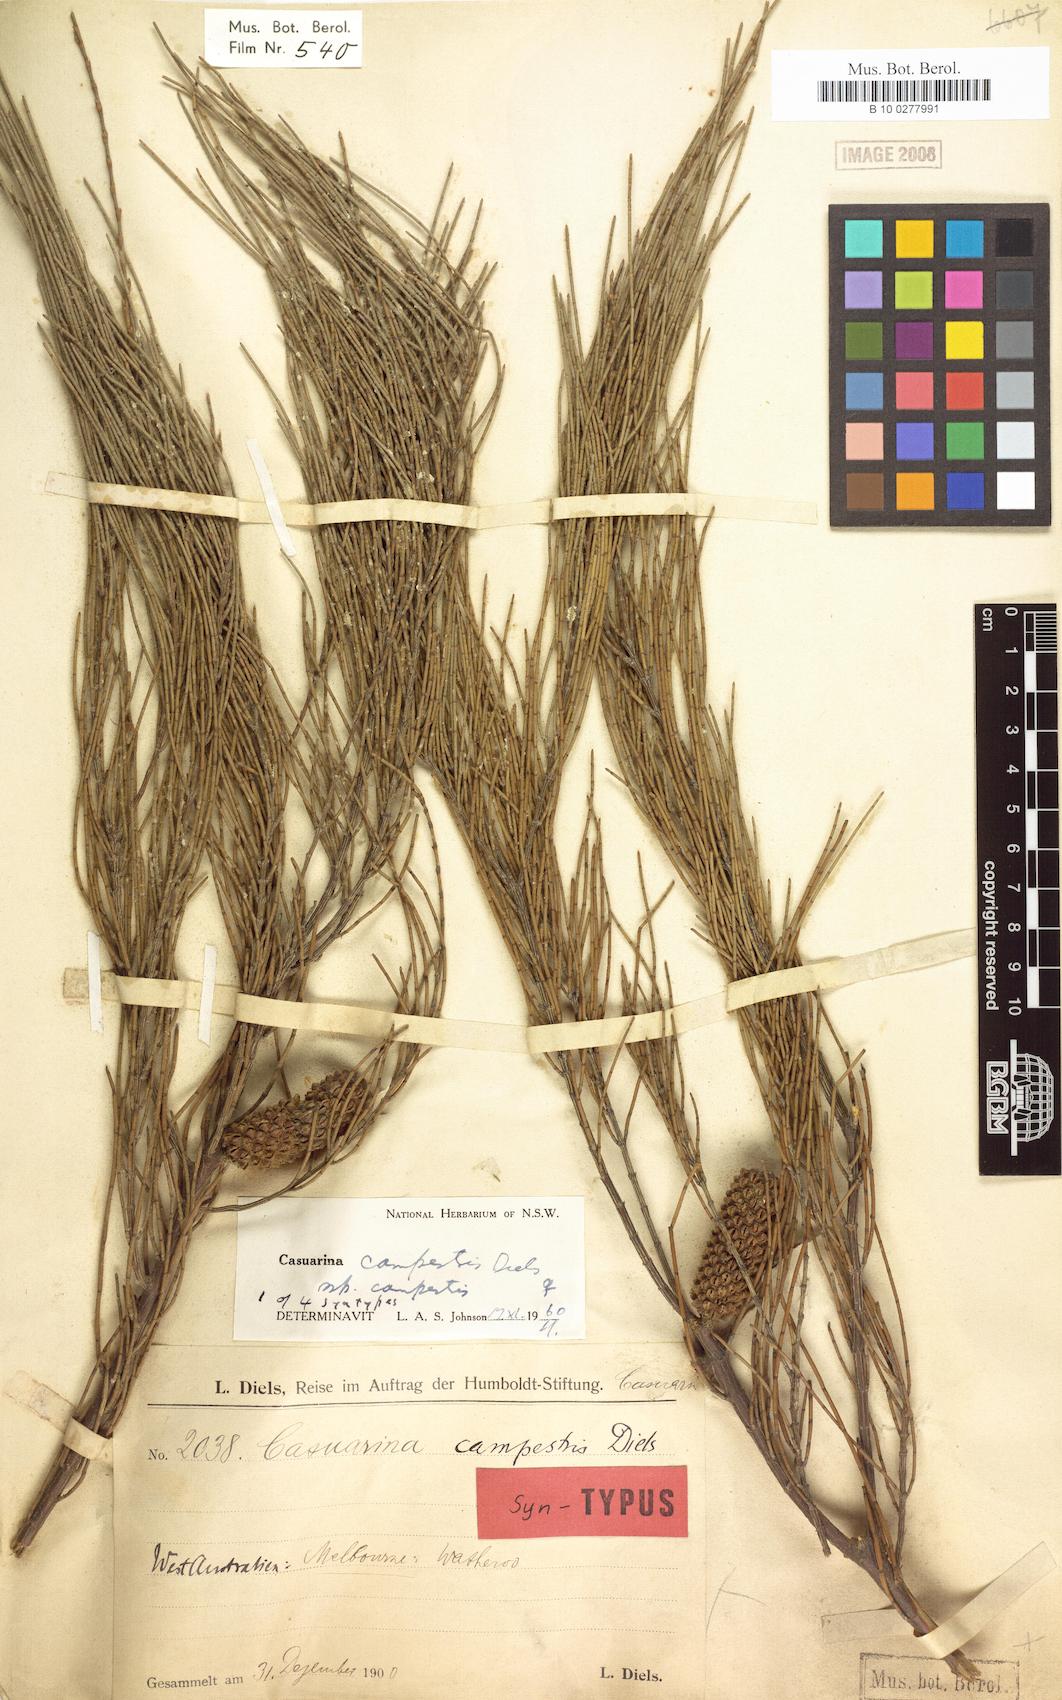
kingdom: Plantae
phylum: Tracheophyta
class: Magnoliopsida
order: Fagales
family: Casuarinaceae
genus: Allocasuarina
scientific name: Allocasuarina campestris
